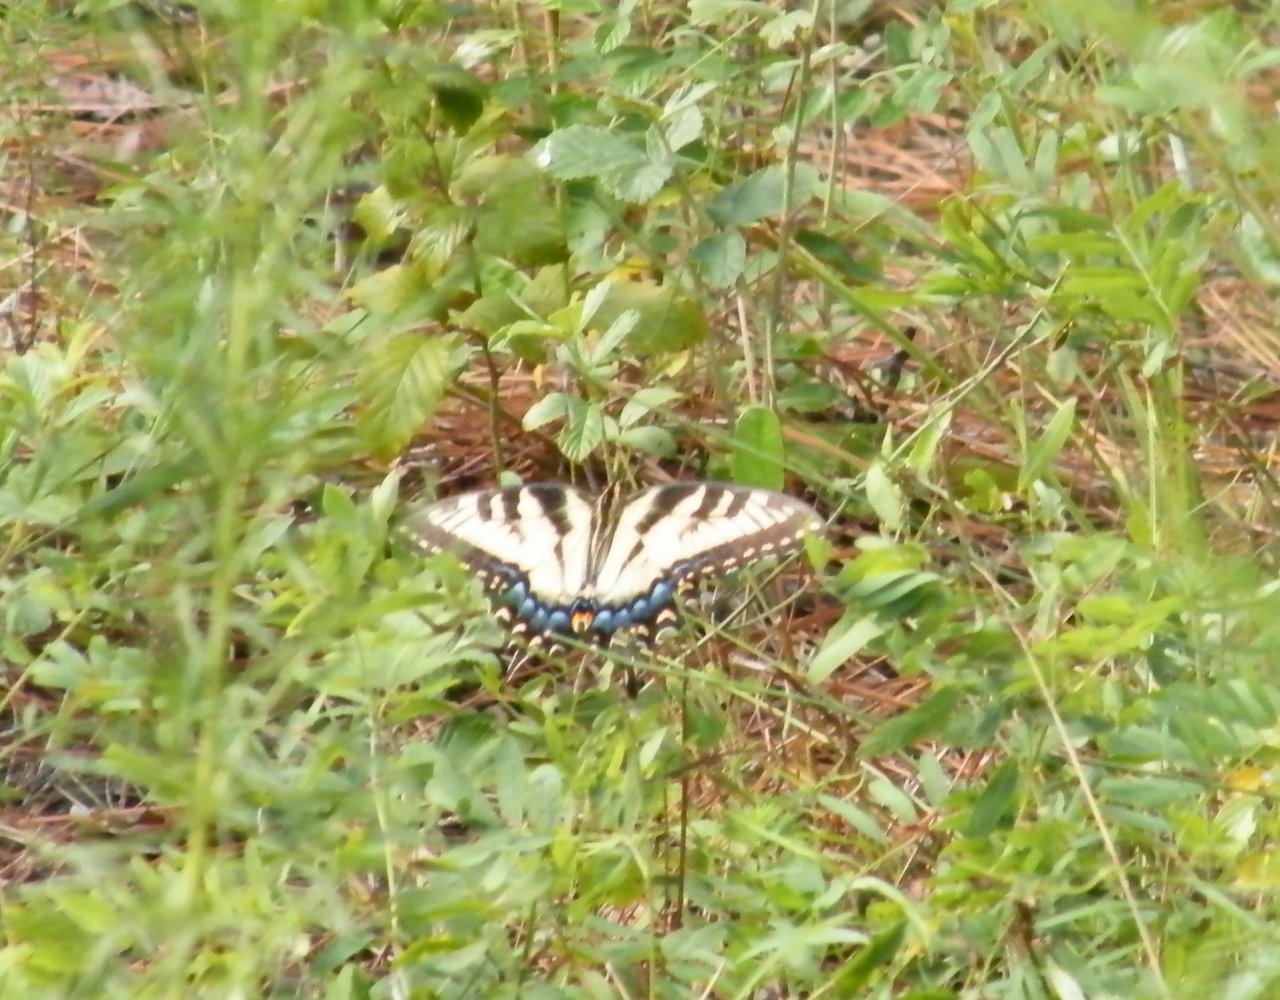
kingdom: Animalia
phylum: Arthropoda
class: Insecta
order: Lepidoptera
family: Papilionidae
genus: Pterourus
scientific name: Pterourus glaucus
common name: Eastern Tiger Swallowtail
